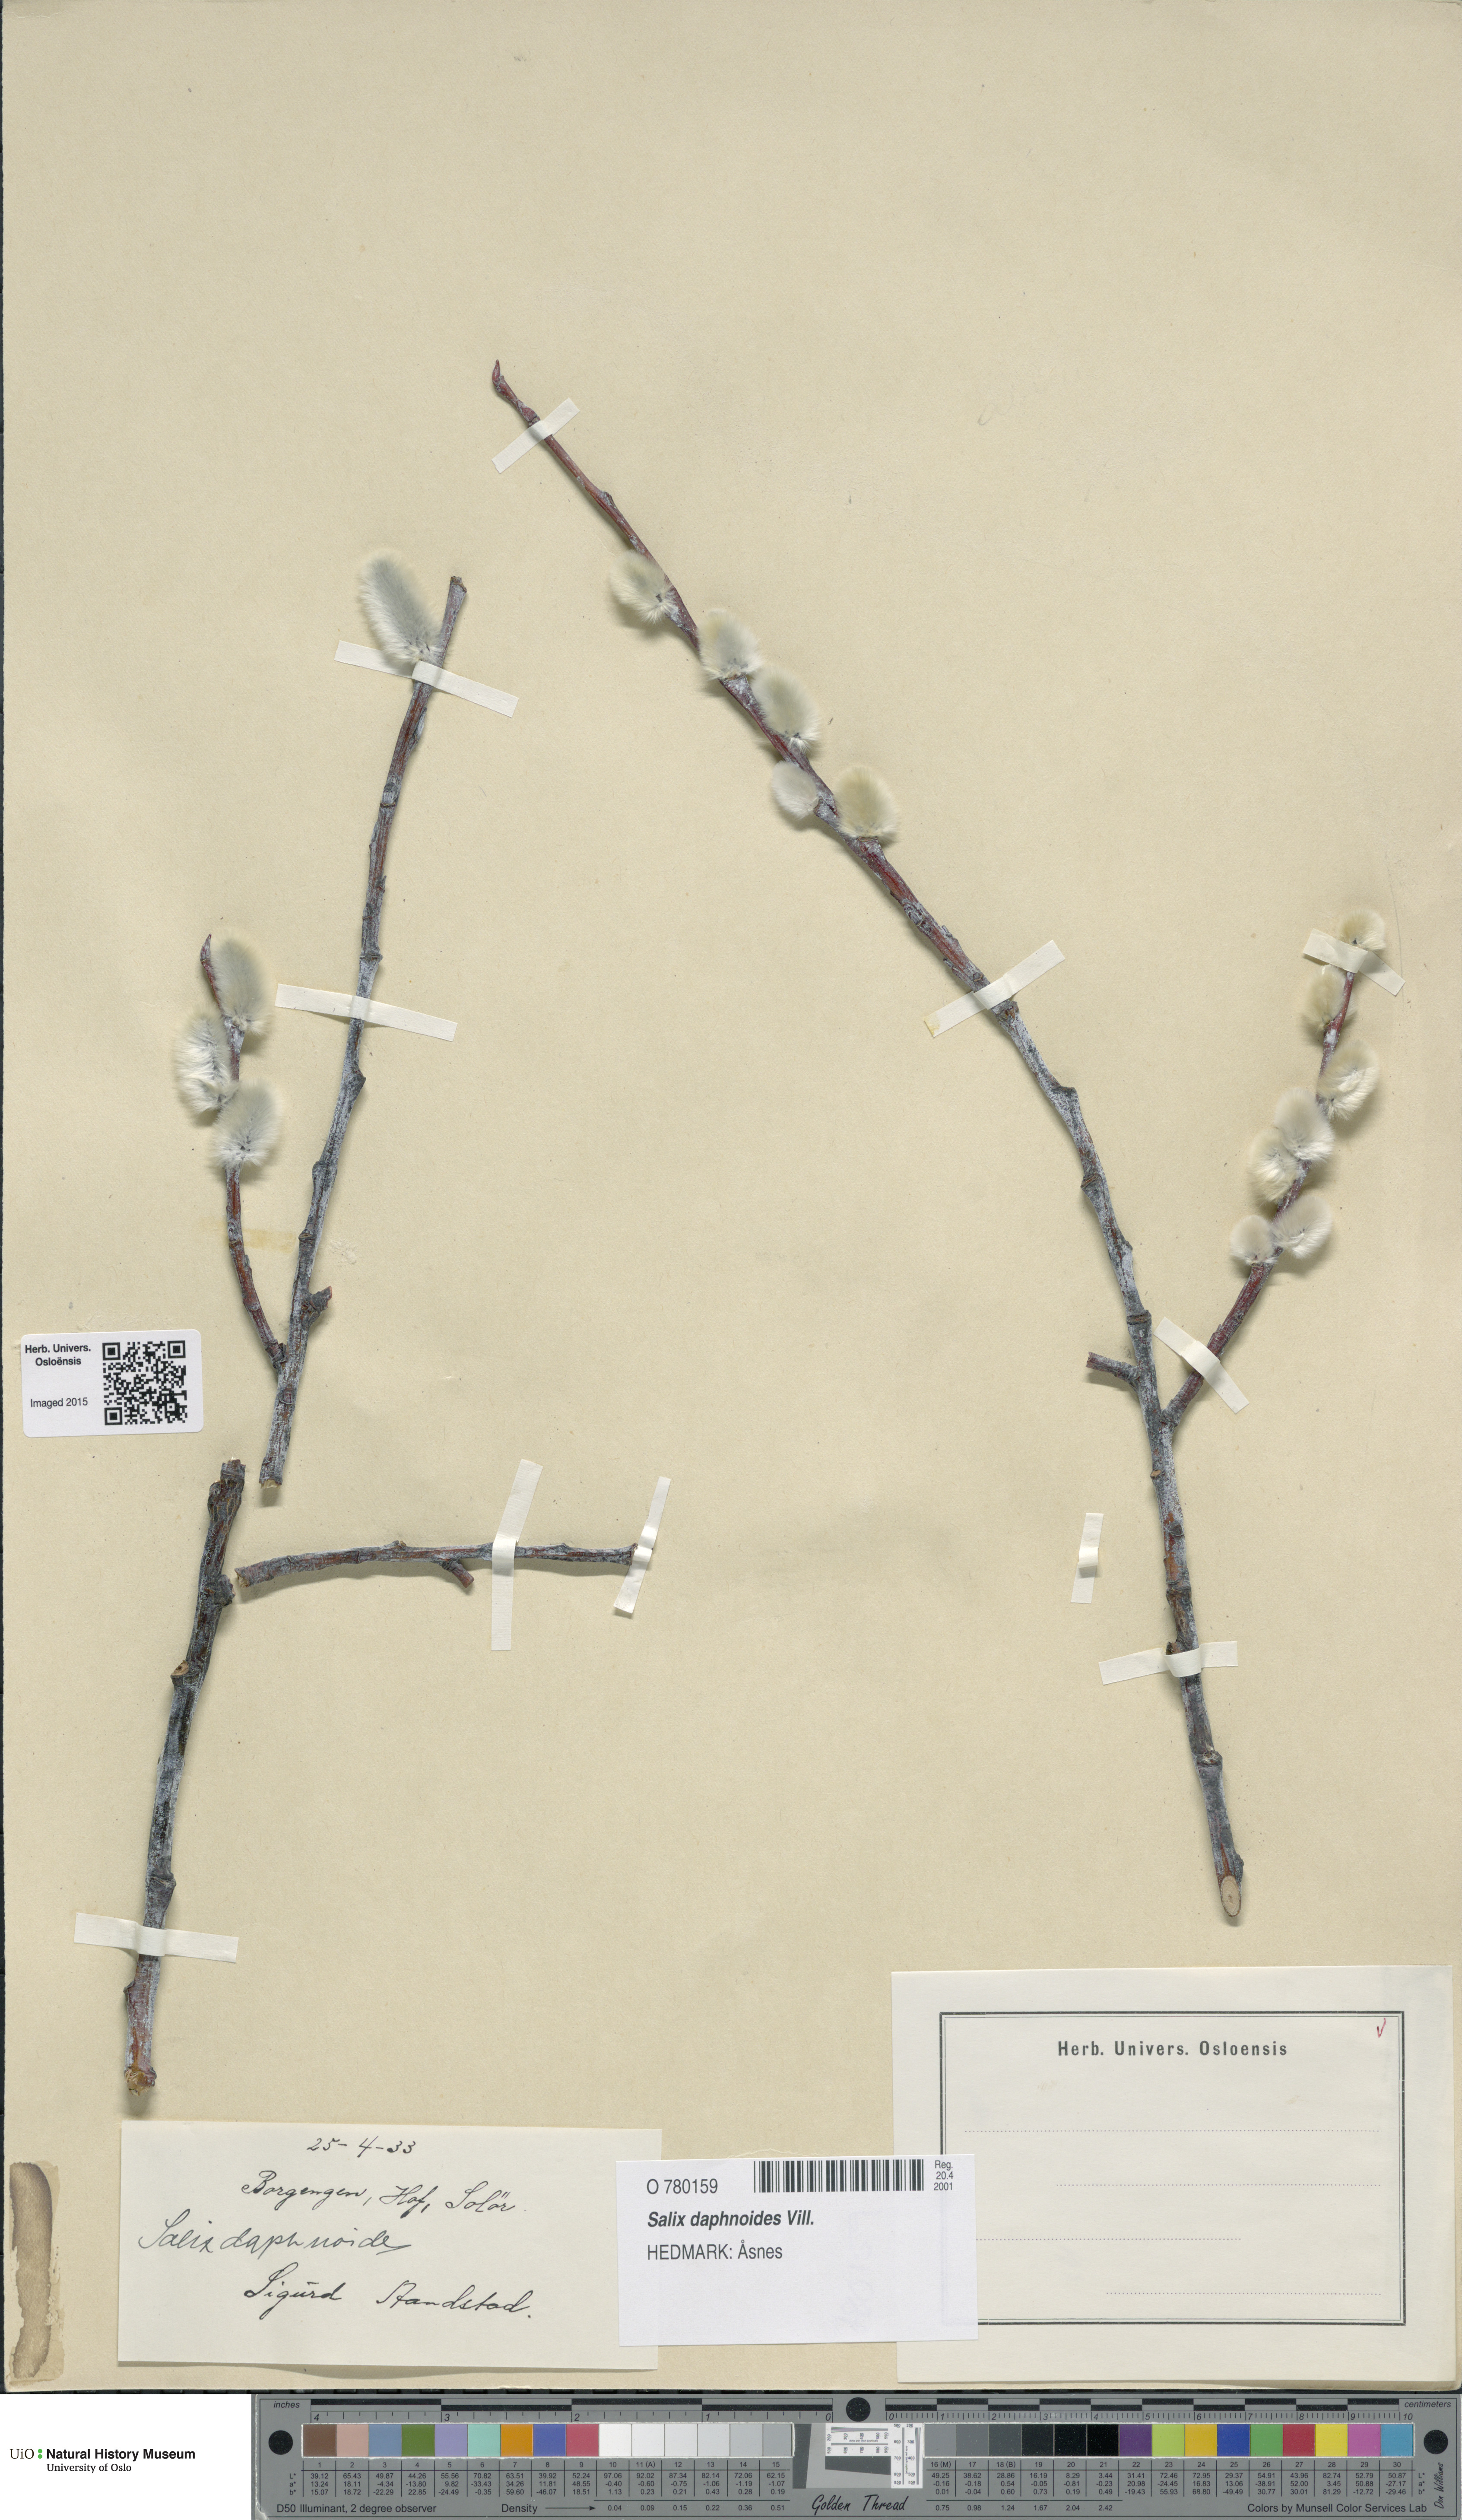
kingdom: Plantae
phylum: Tracheophyta
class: Magnoliopsida
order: Malpighiales
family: Salicaceae
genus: Salix
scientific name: Salix daphnoides
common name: European violet-willow
